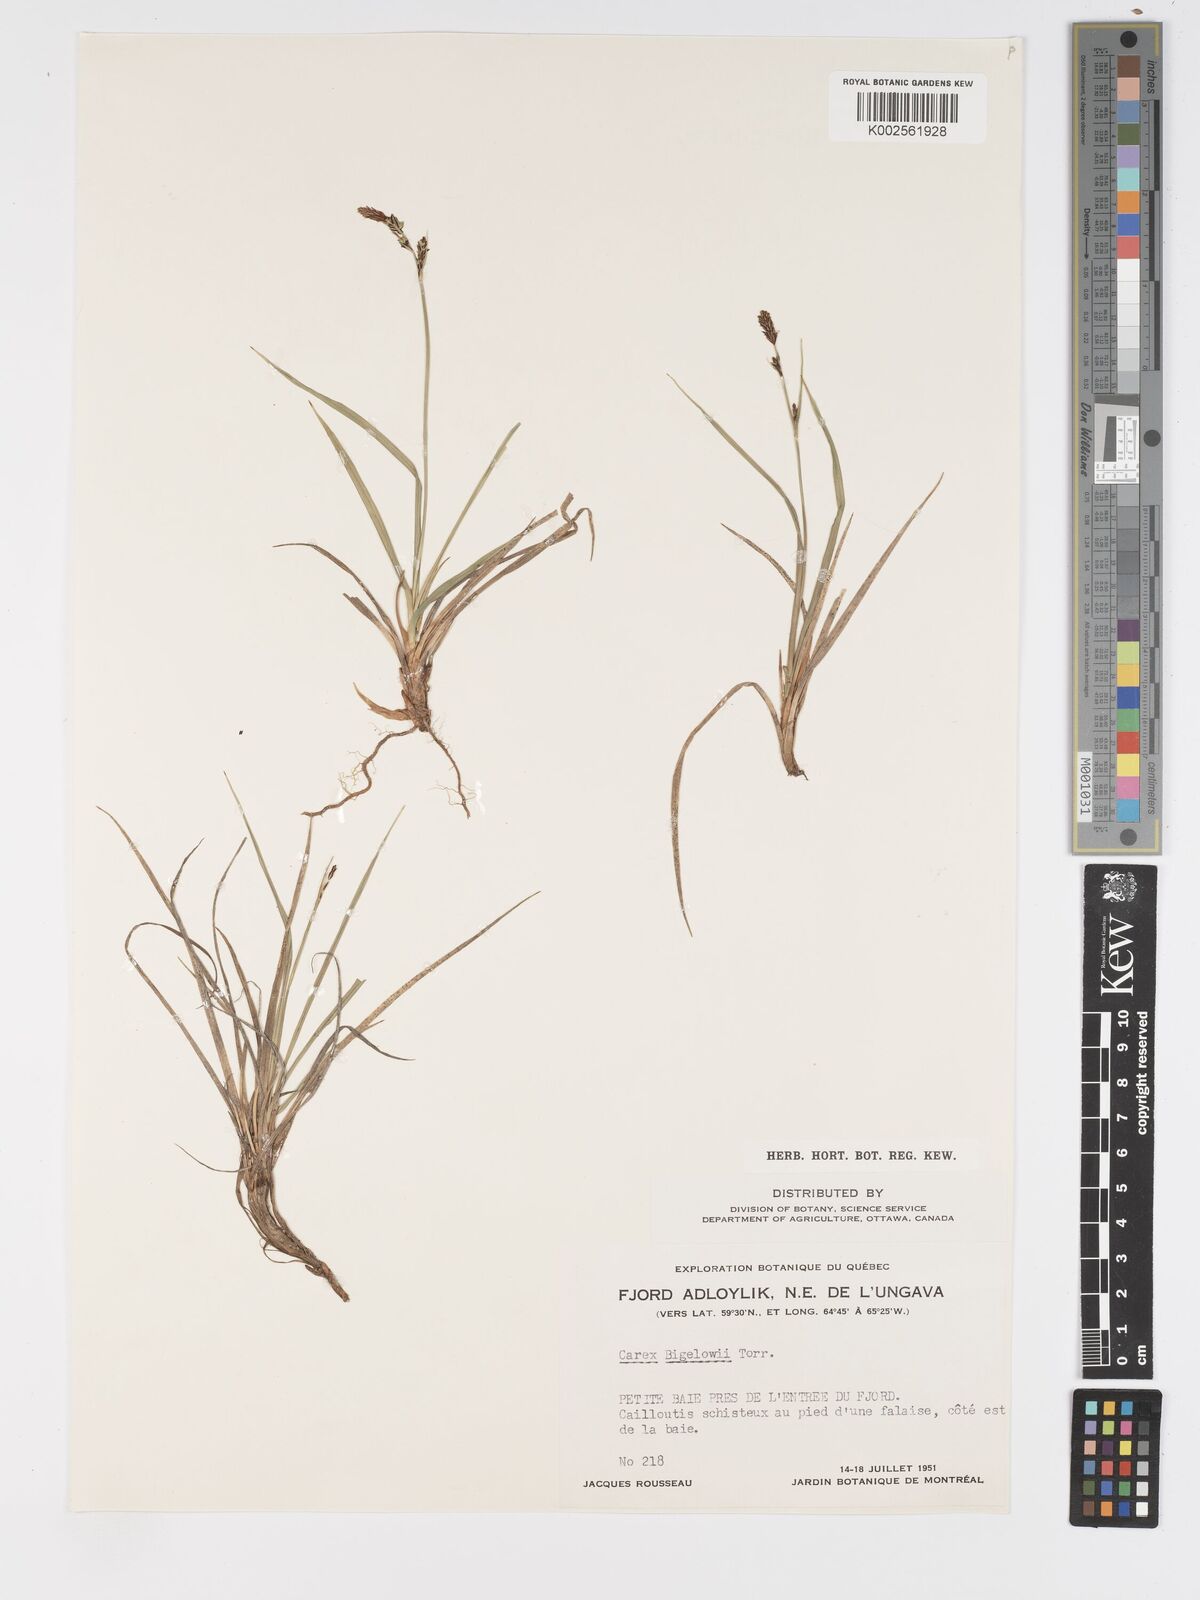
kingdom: Plantae
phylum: Tracheophyta
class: Liliopsida
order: Poales
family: Cyperaceae
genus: Carex
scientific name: Carex bigelowii
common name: Stiff sedge
